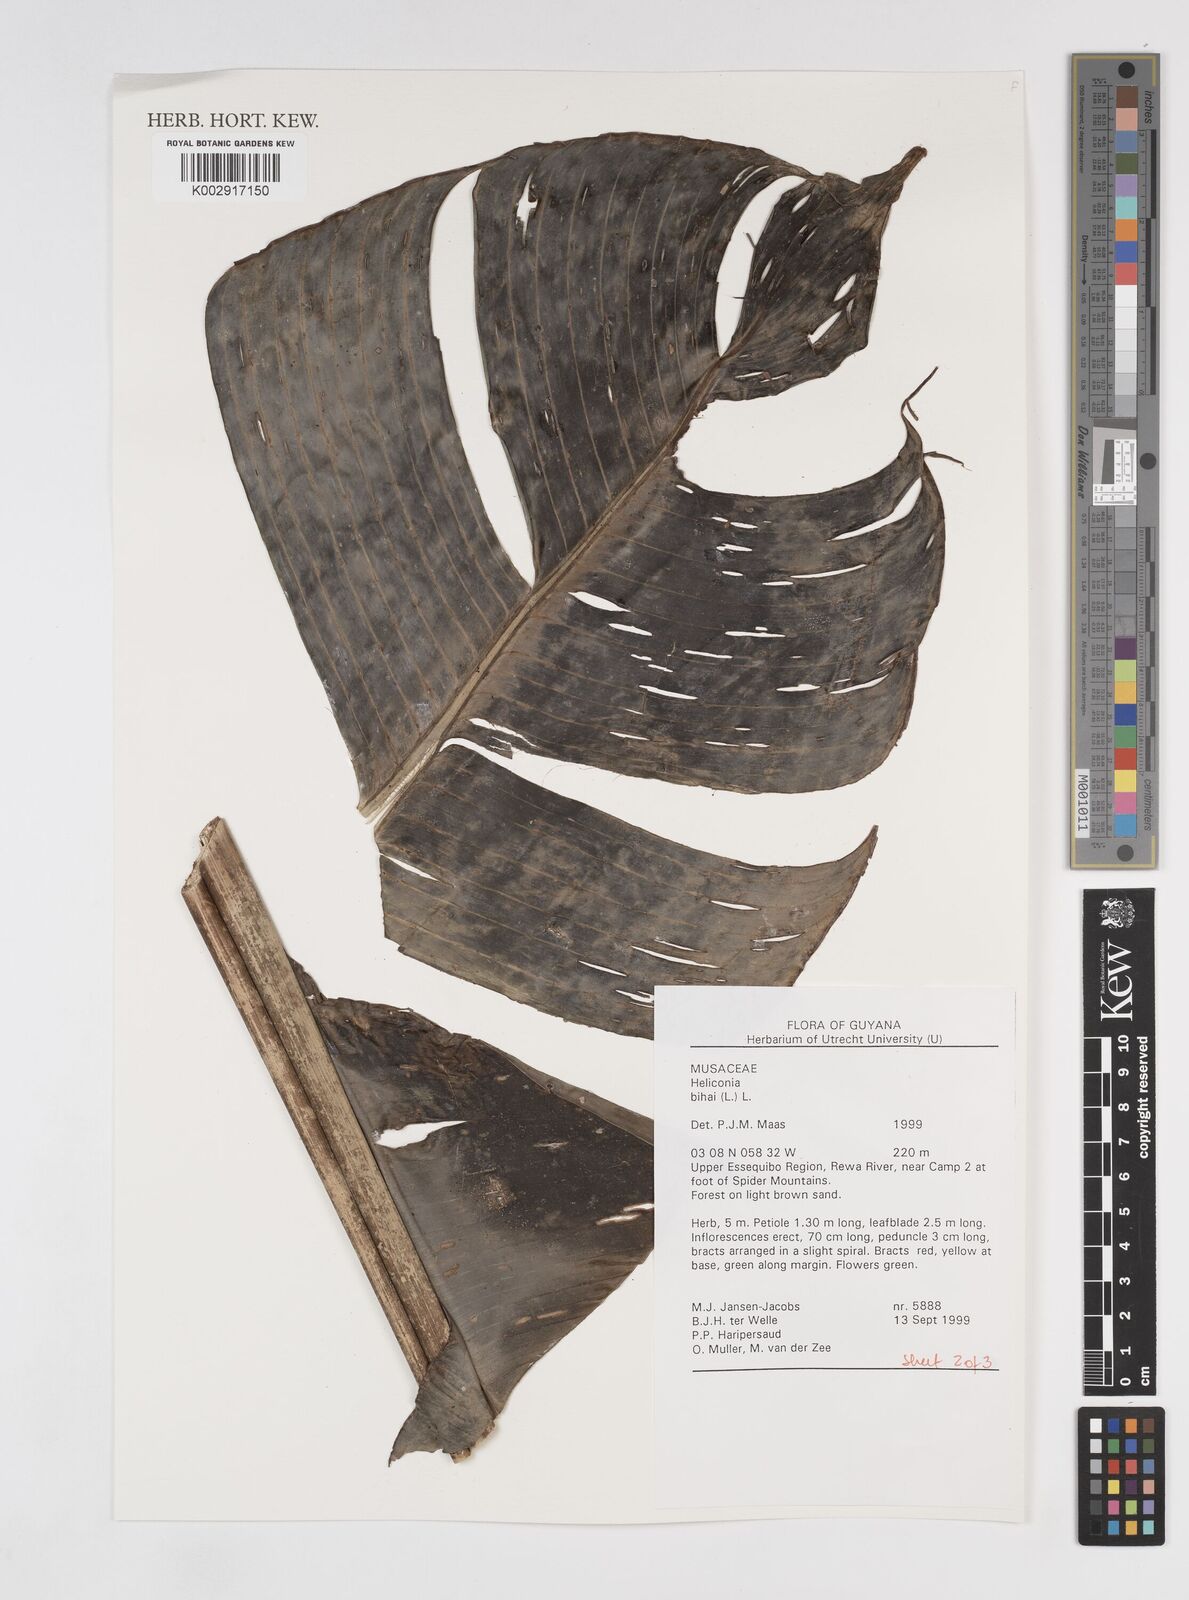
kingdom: Plantae
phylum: Tracheophyta
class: Liliopsida
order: Zingiberales
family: Heliconiaceae
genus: Heliconia
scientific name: Heliconia bihai
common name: Macaw flower
